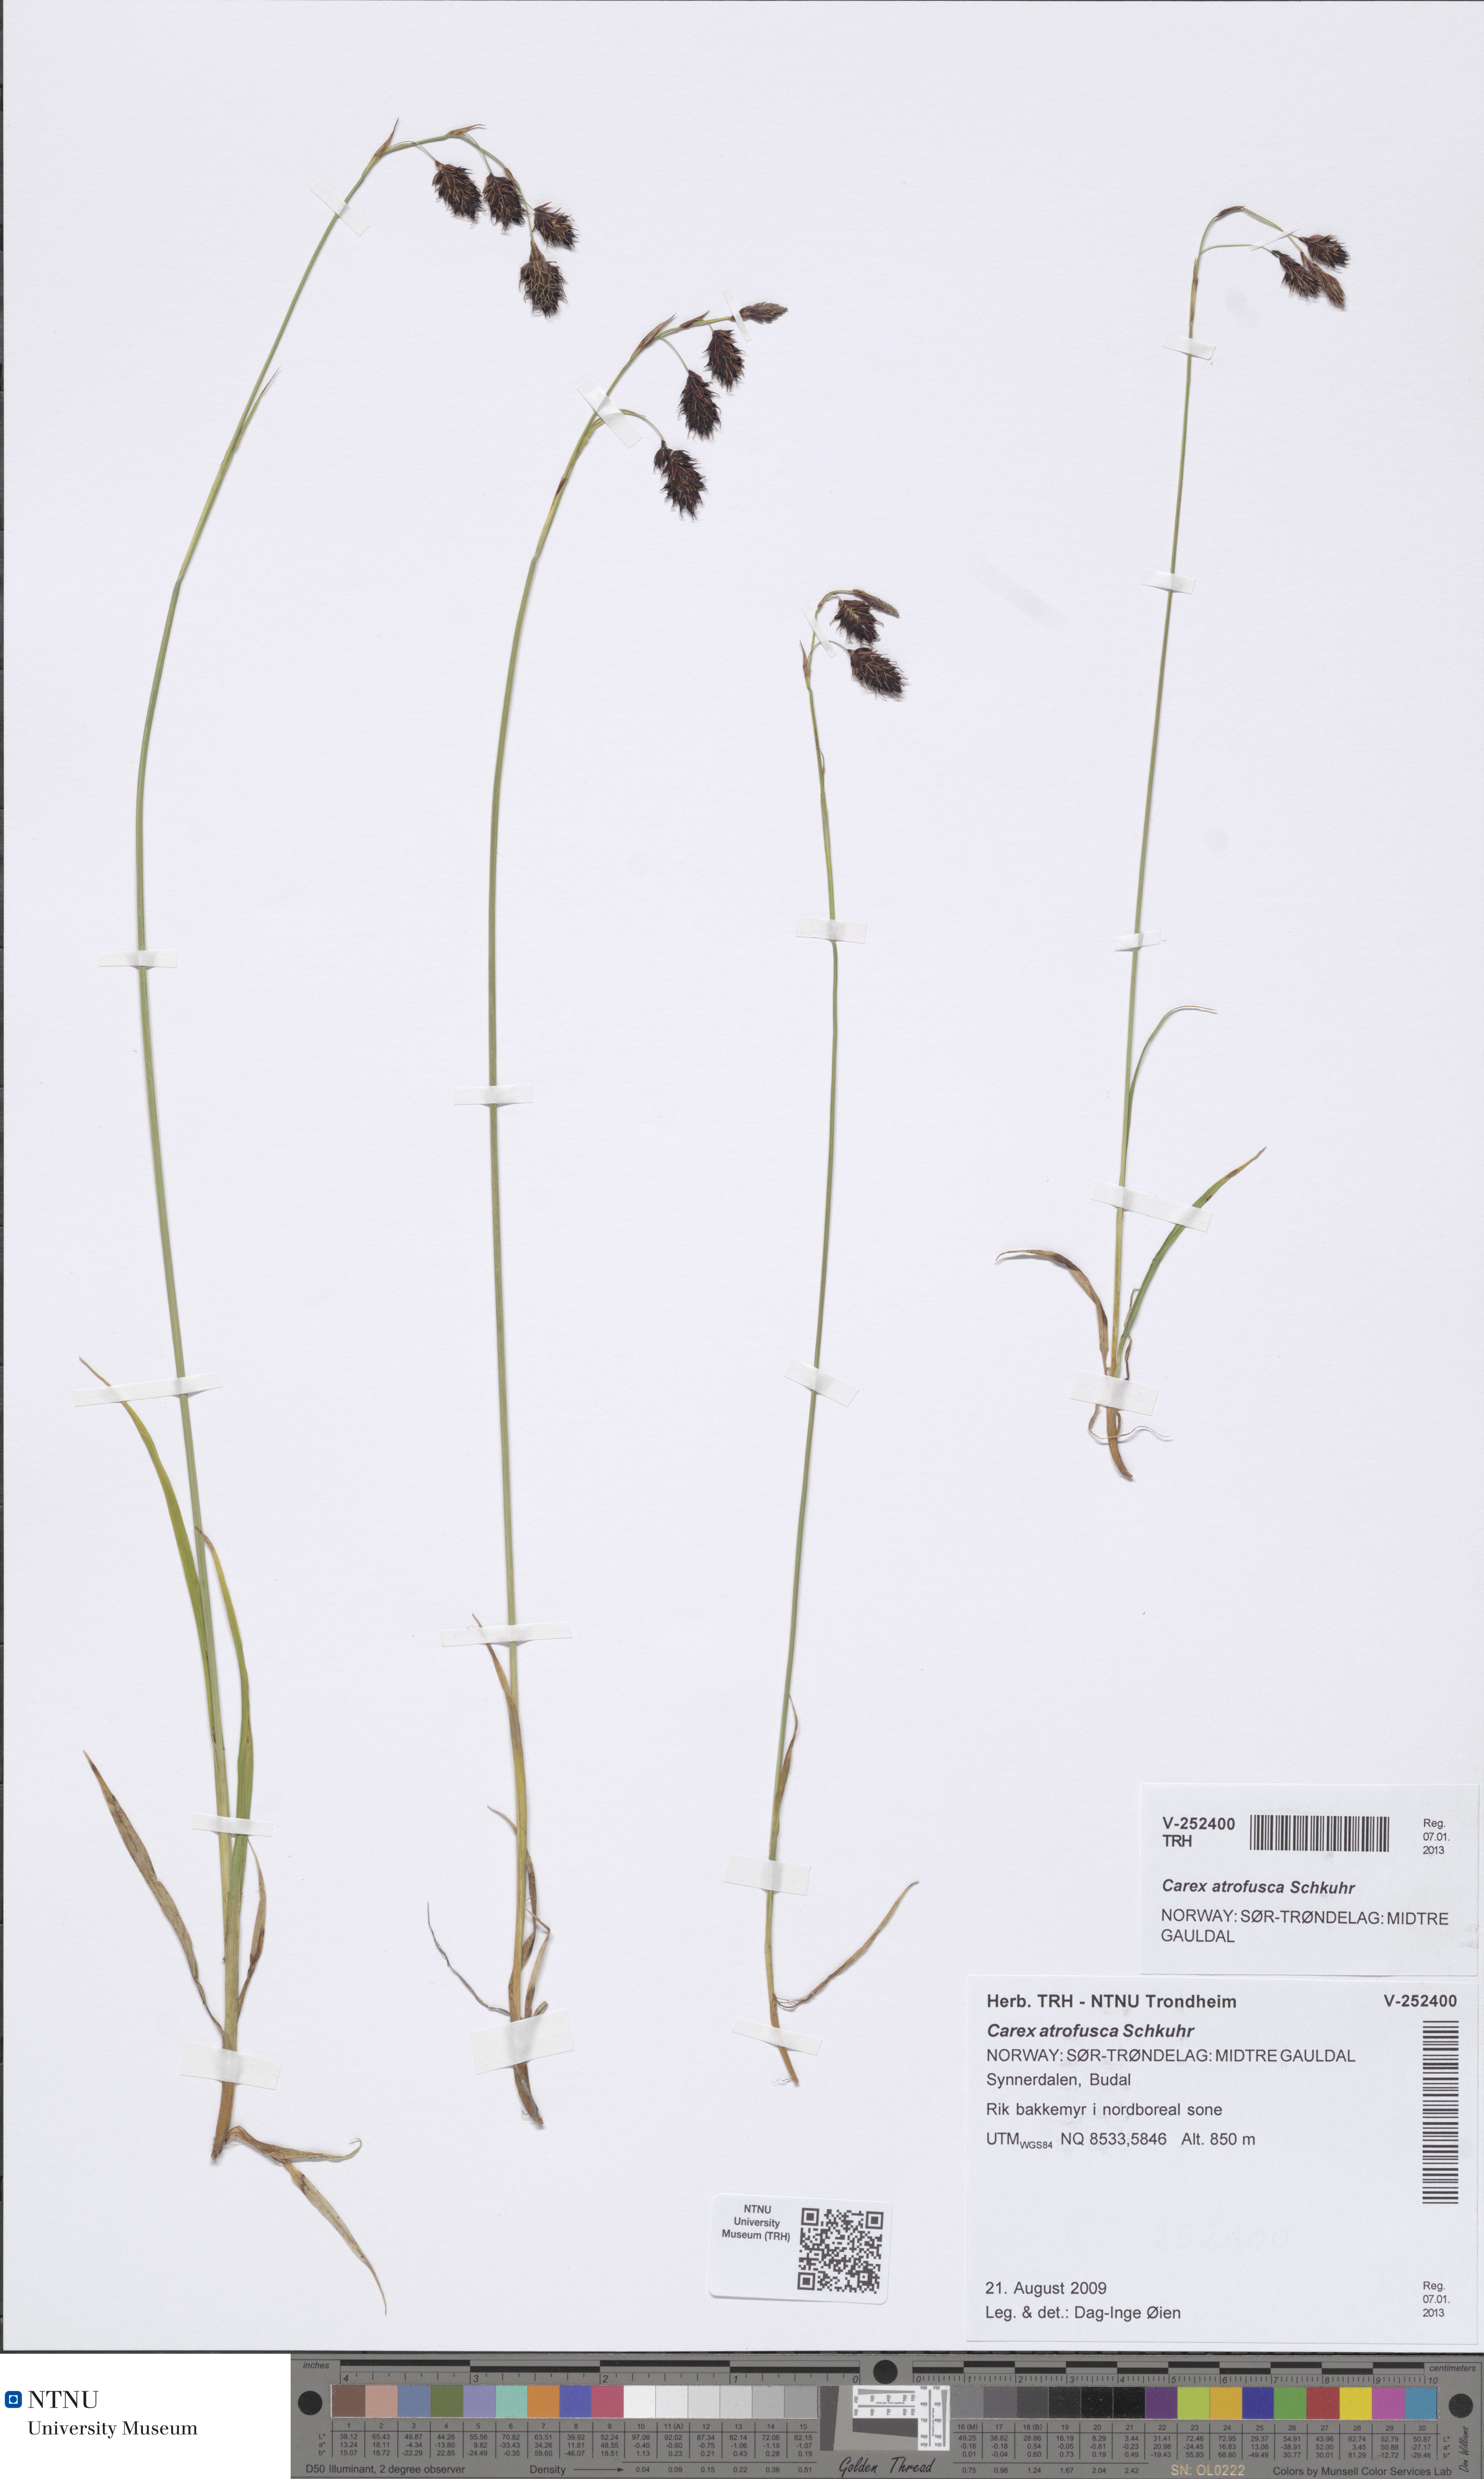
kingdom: Plantae
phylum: Tracheophyta
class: Liliopsida
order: Poales
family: Cyperaceae
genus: Carex
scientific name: Carex atrofusca
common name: Scorched alpine-sedge
